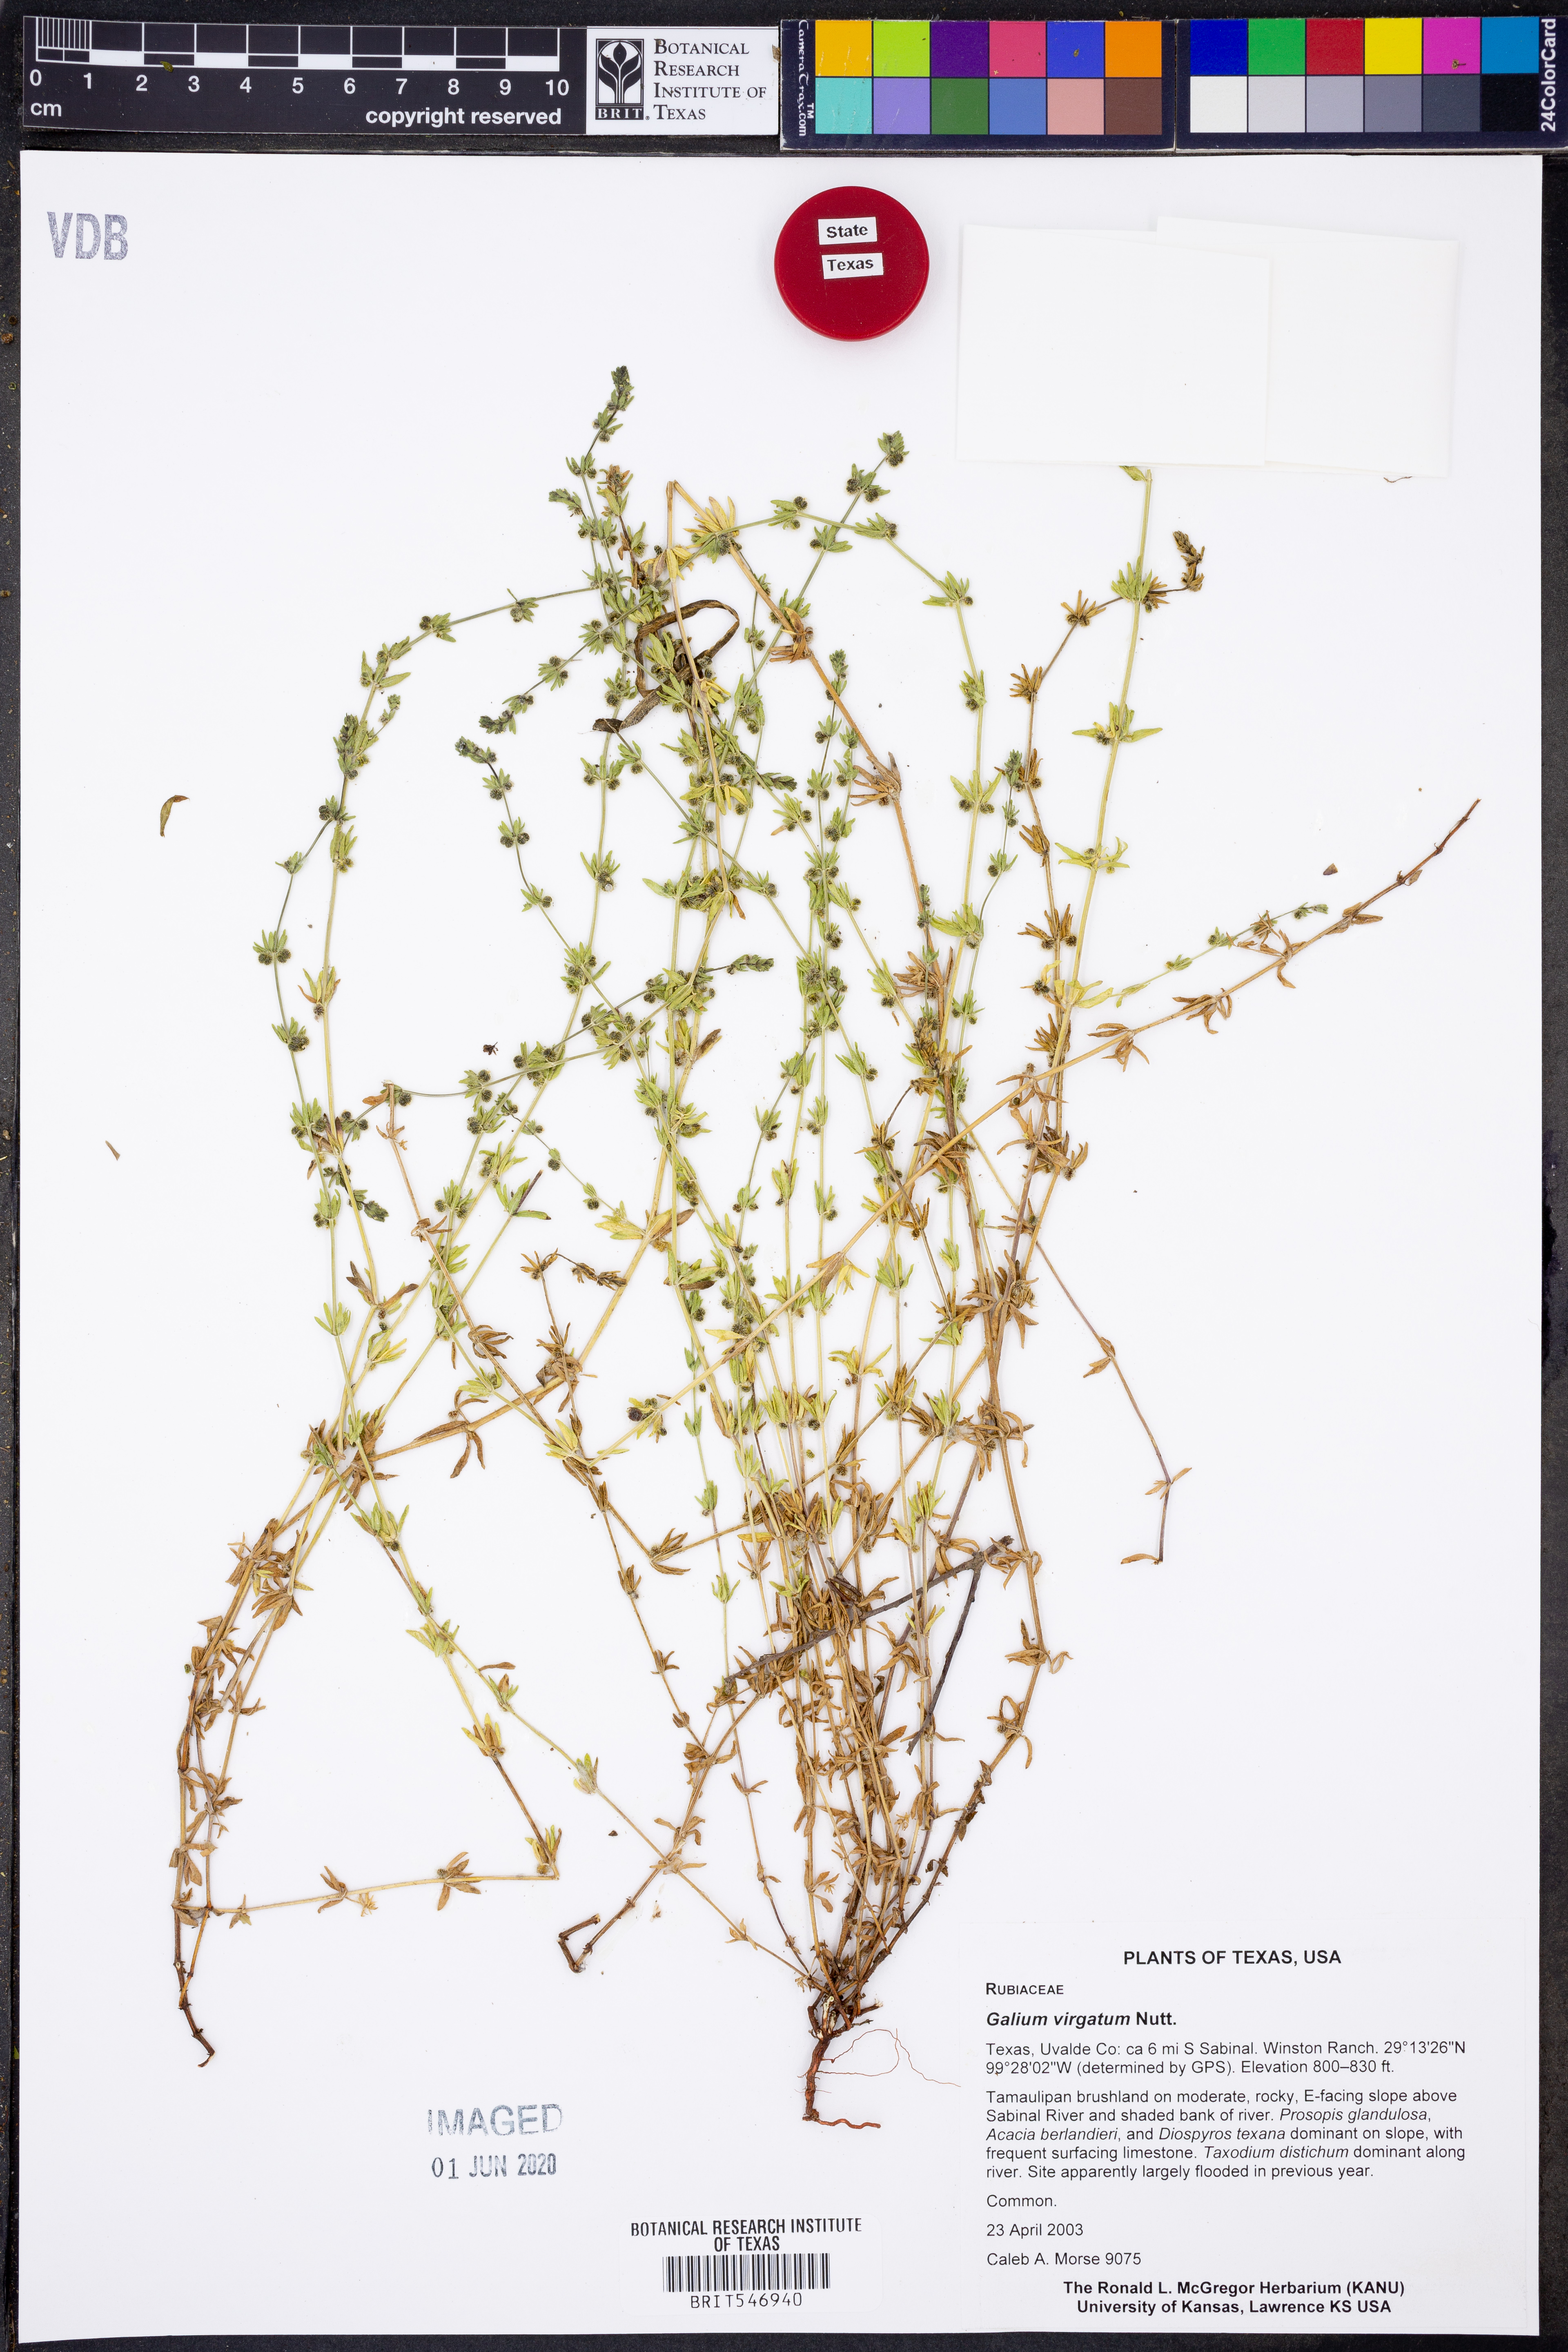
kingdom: Plantae
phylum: Tracheophyta
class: Magnoliopsida
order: Gentianales
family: Rubiaceae
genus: Galium
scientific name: Galium virgatum
